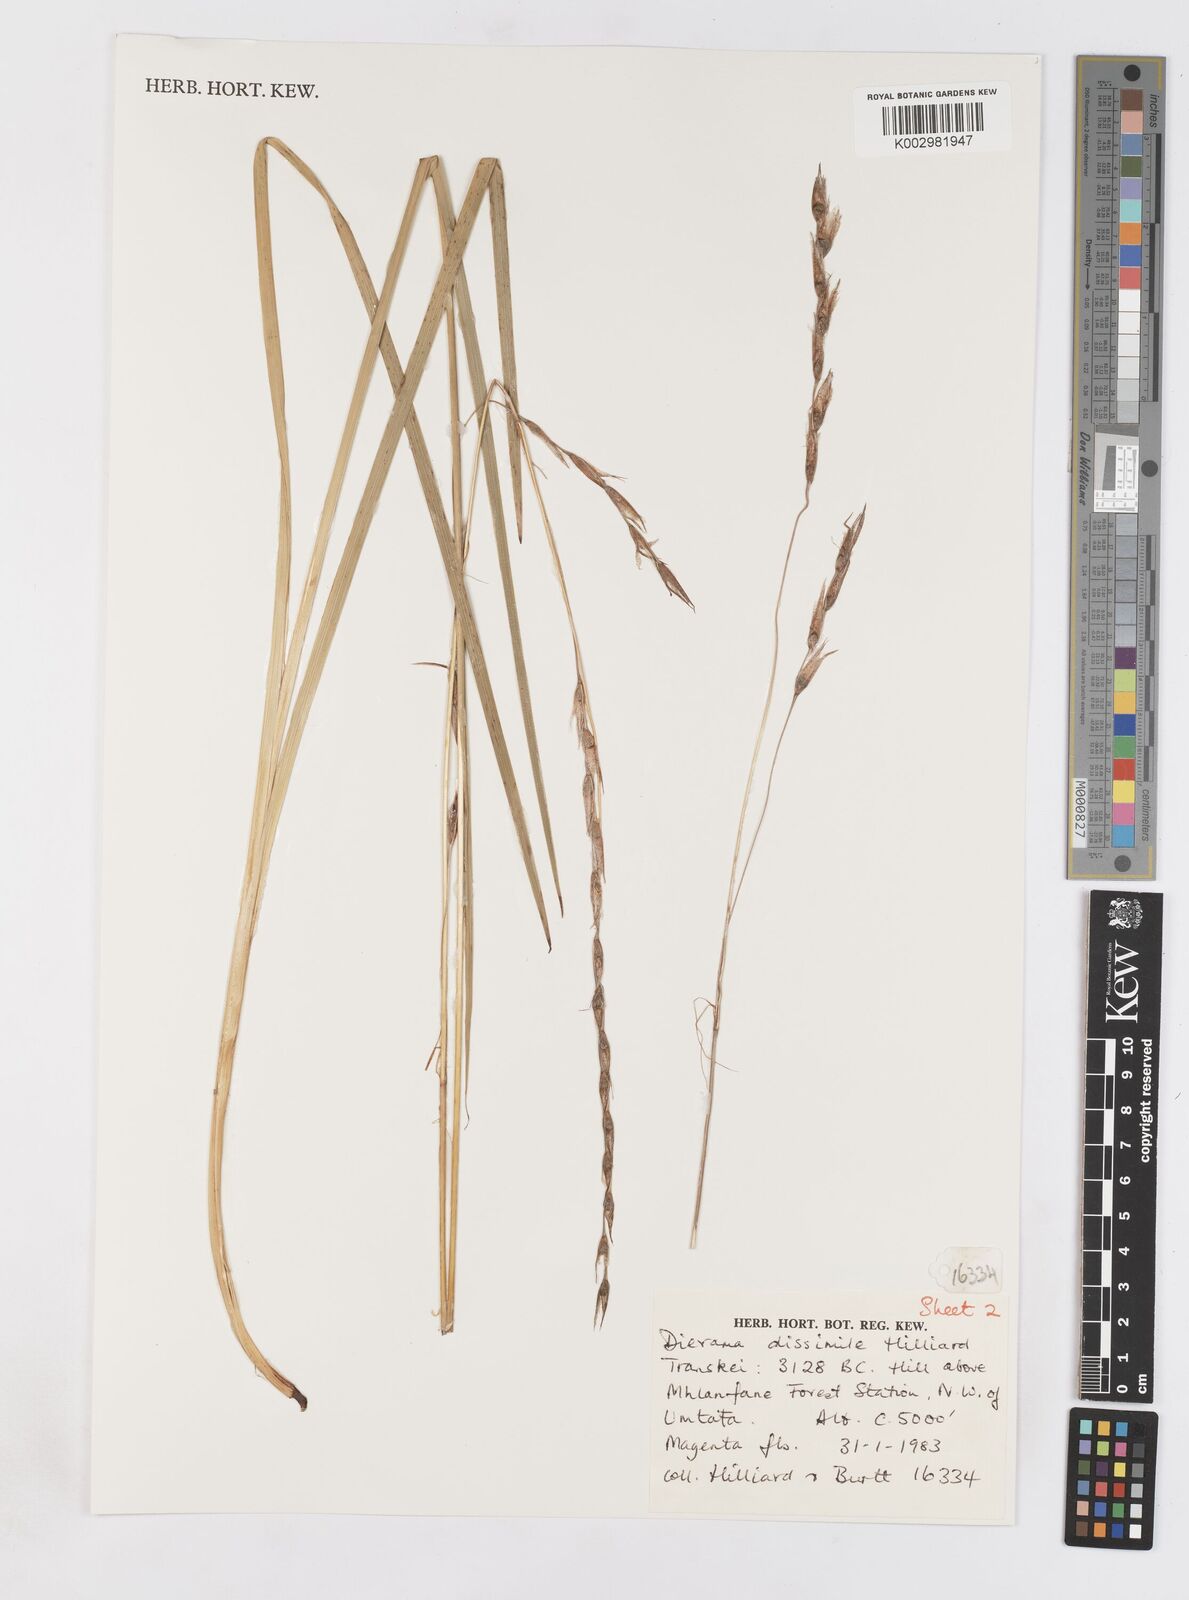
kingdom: Plantae
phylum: Tracheophyta
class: Liliopsida
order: Asparagales
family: Iridaceae
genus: Dierama
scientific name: Dierama dissimile
